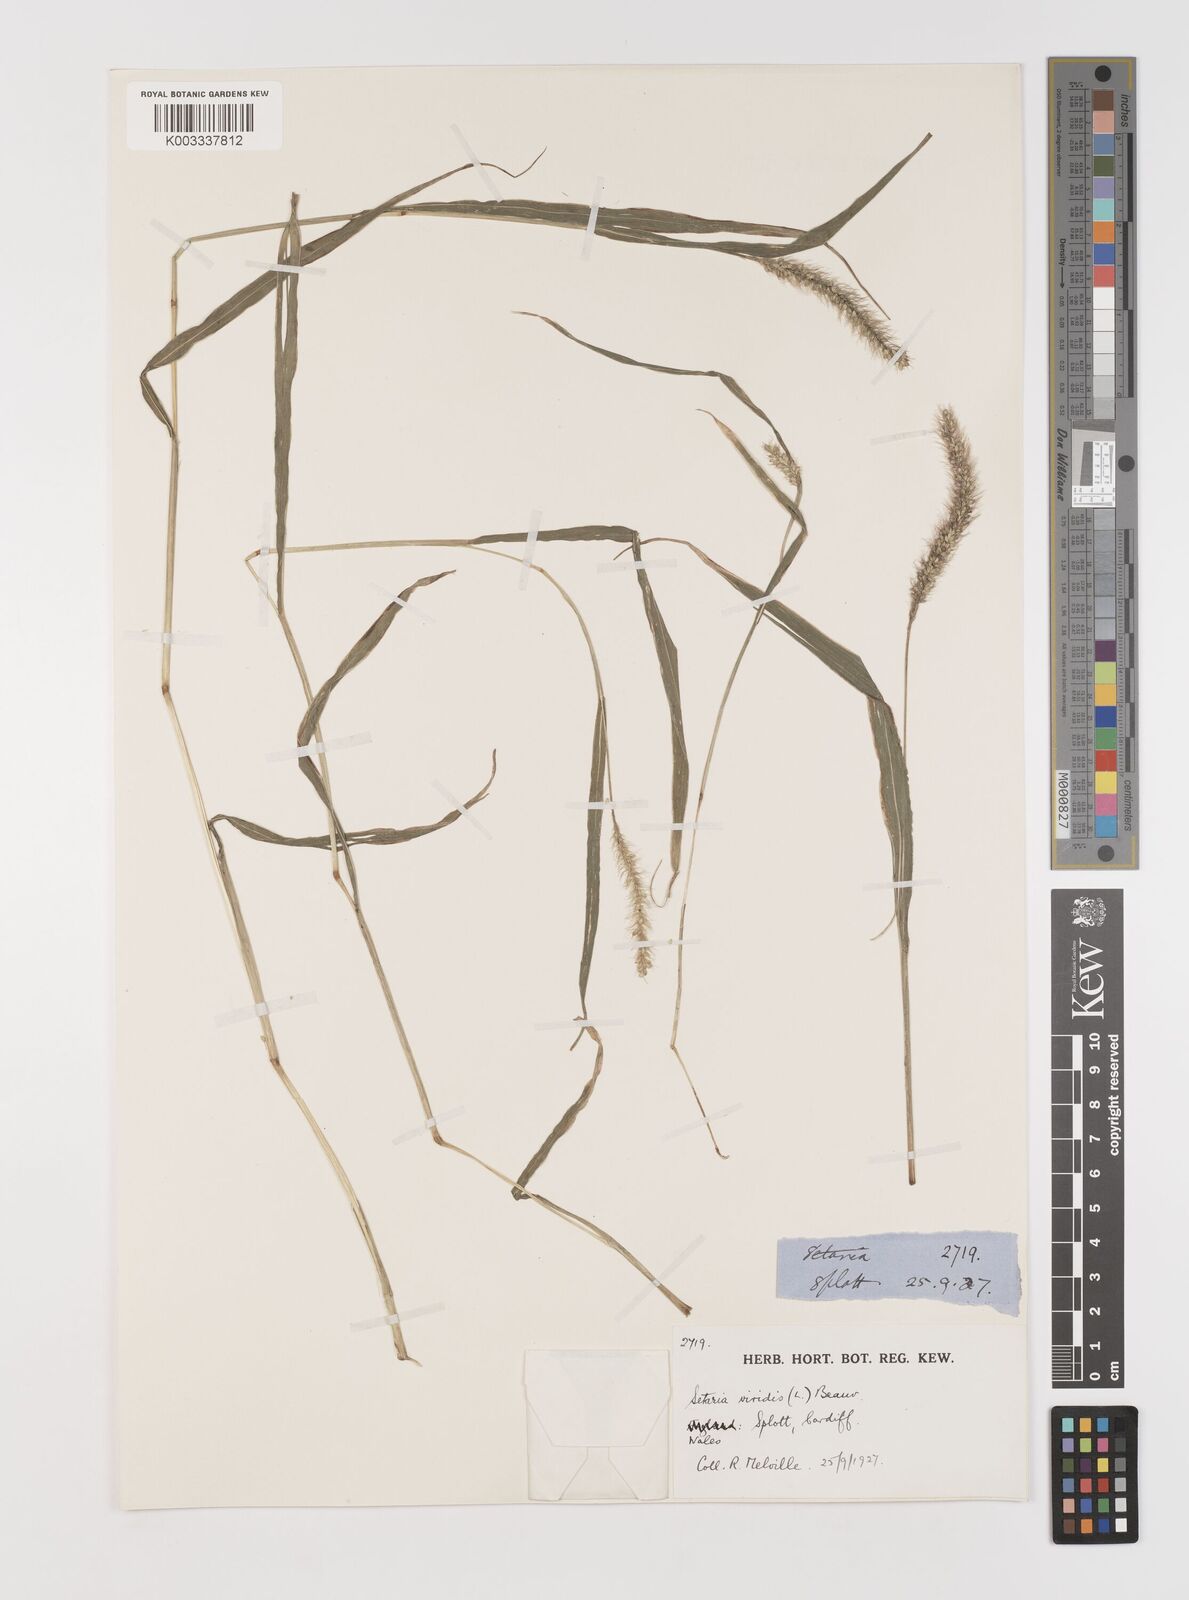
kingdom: Plantae
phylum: Tracheophyta
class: Liliopsida
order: Poales
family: Poaceae
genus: Setaria
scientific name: Setaria viridis
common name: Green bristlegrass
